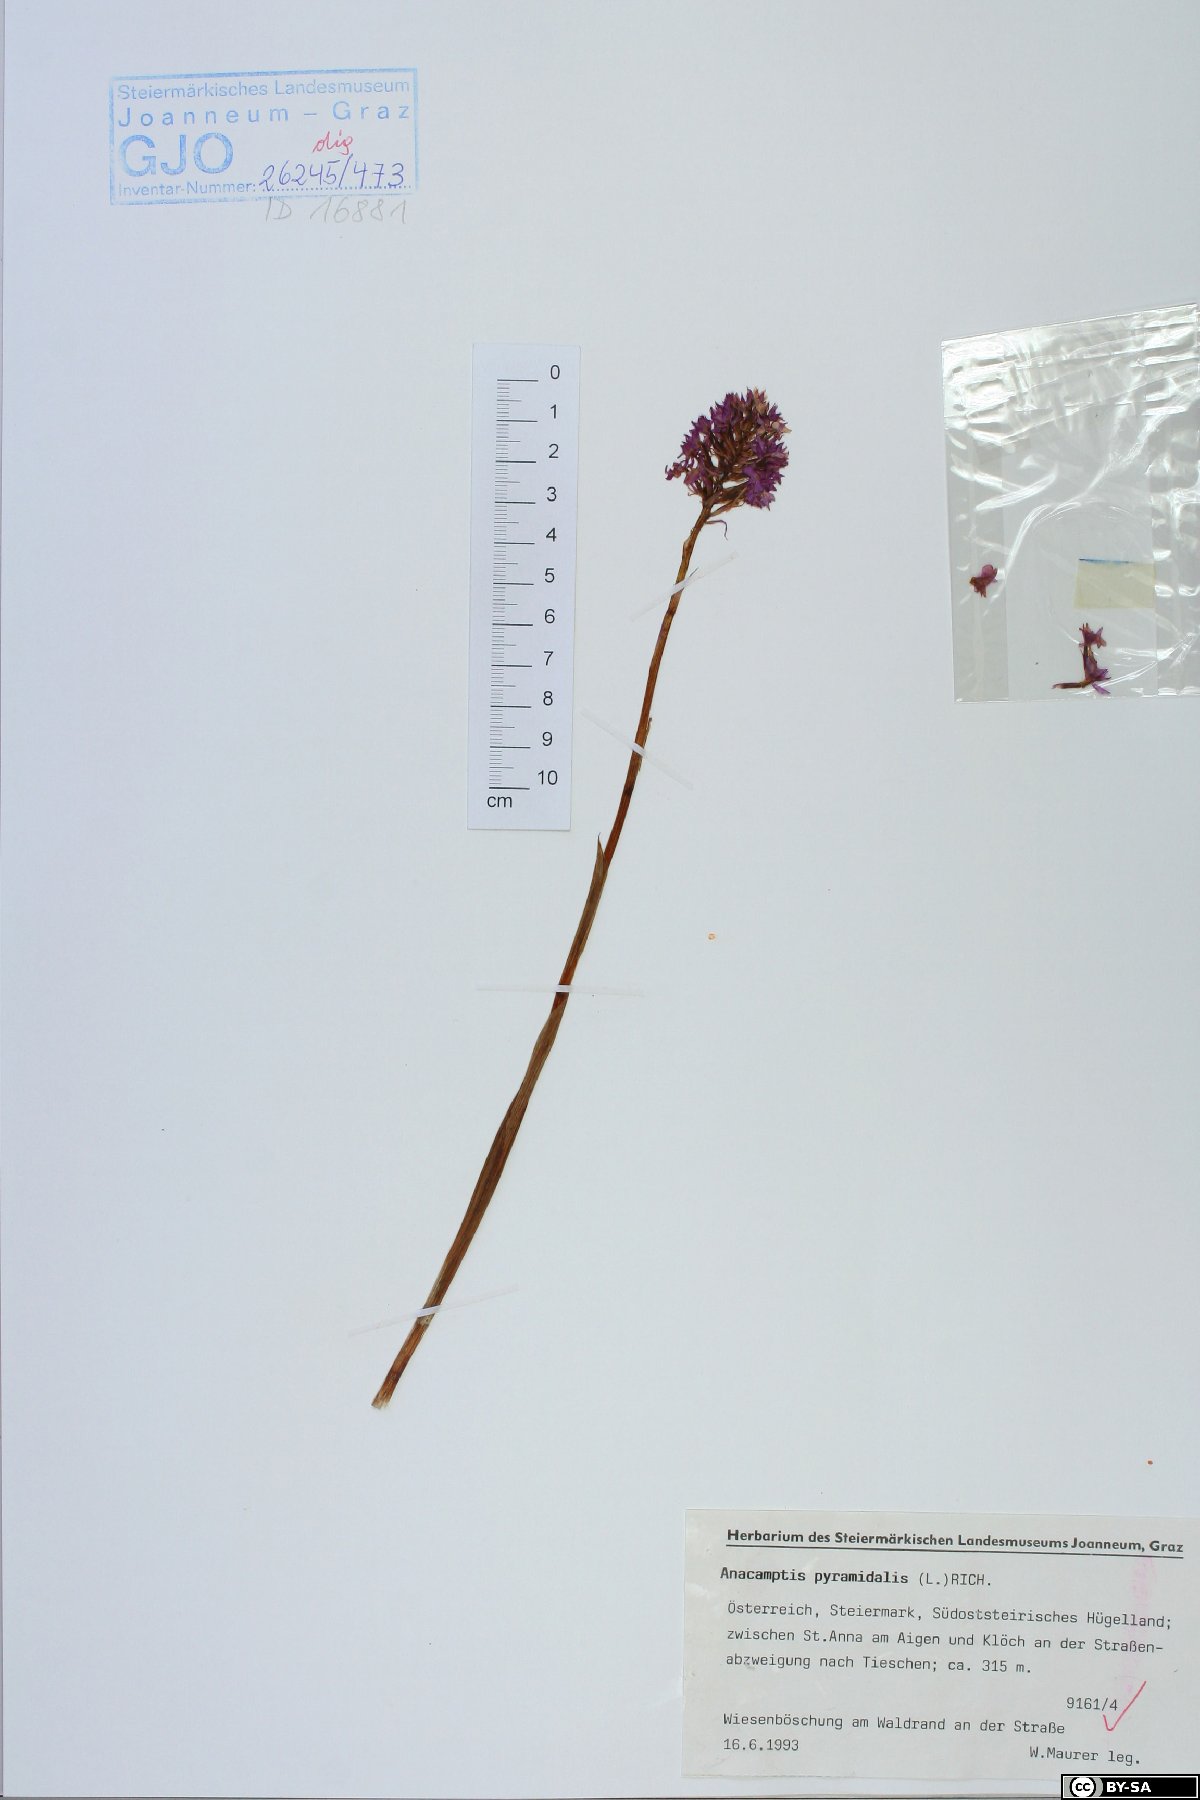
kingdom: Plantae
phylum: Tracheophyta
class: Liliopsida
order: Asparagales
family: Orchidaceae
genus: Anacamptis
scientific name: Anacamptis pyramidalis
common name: Pyramidal orchid
